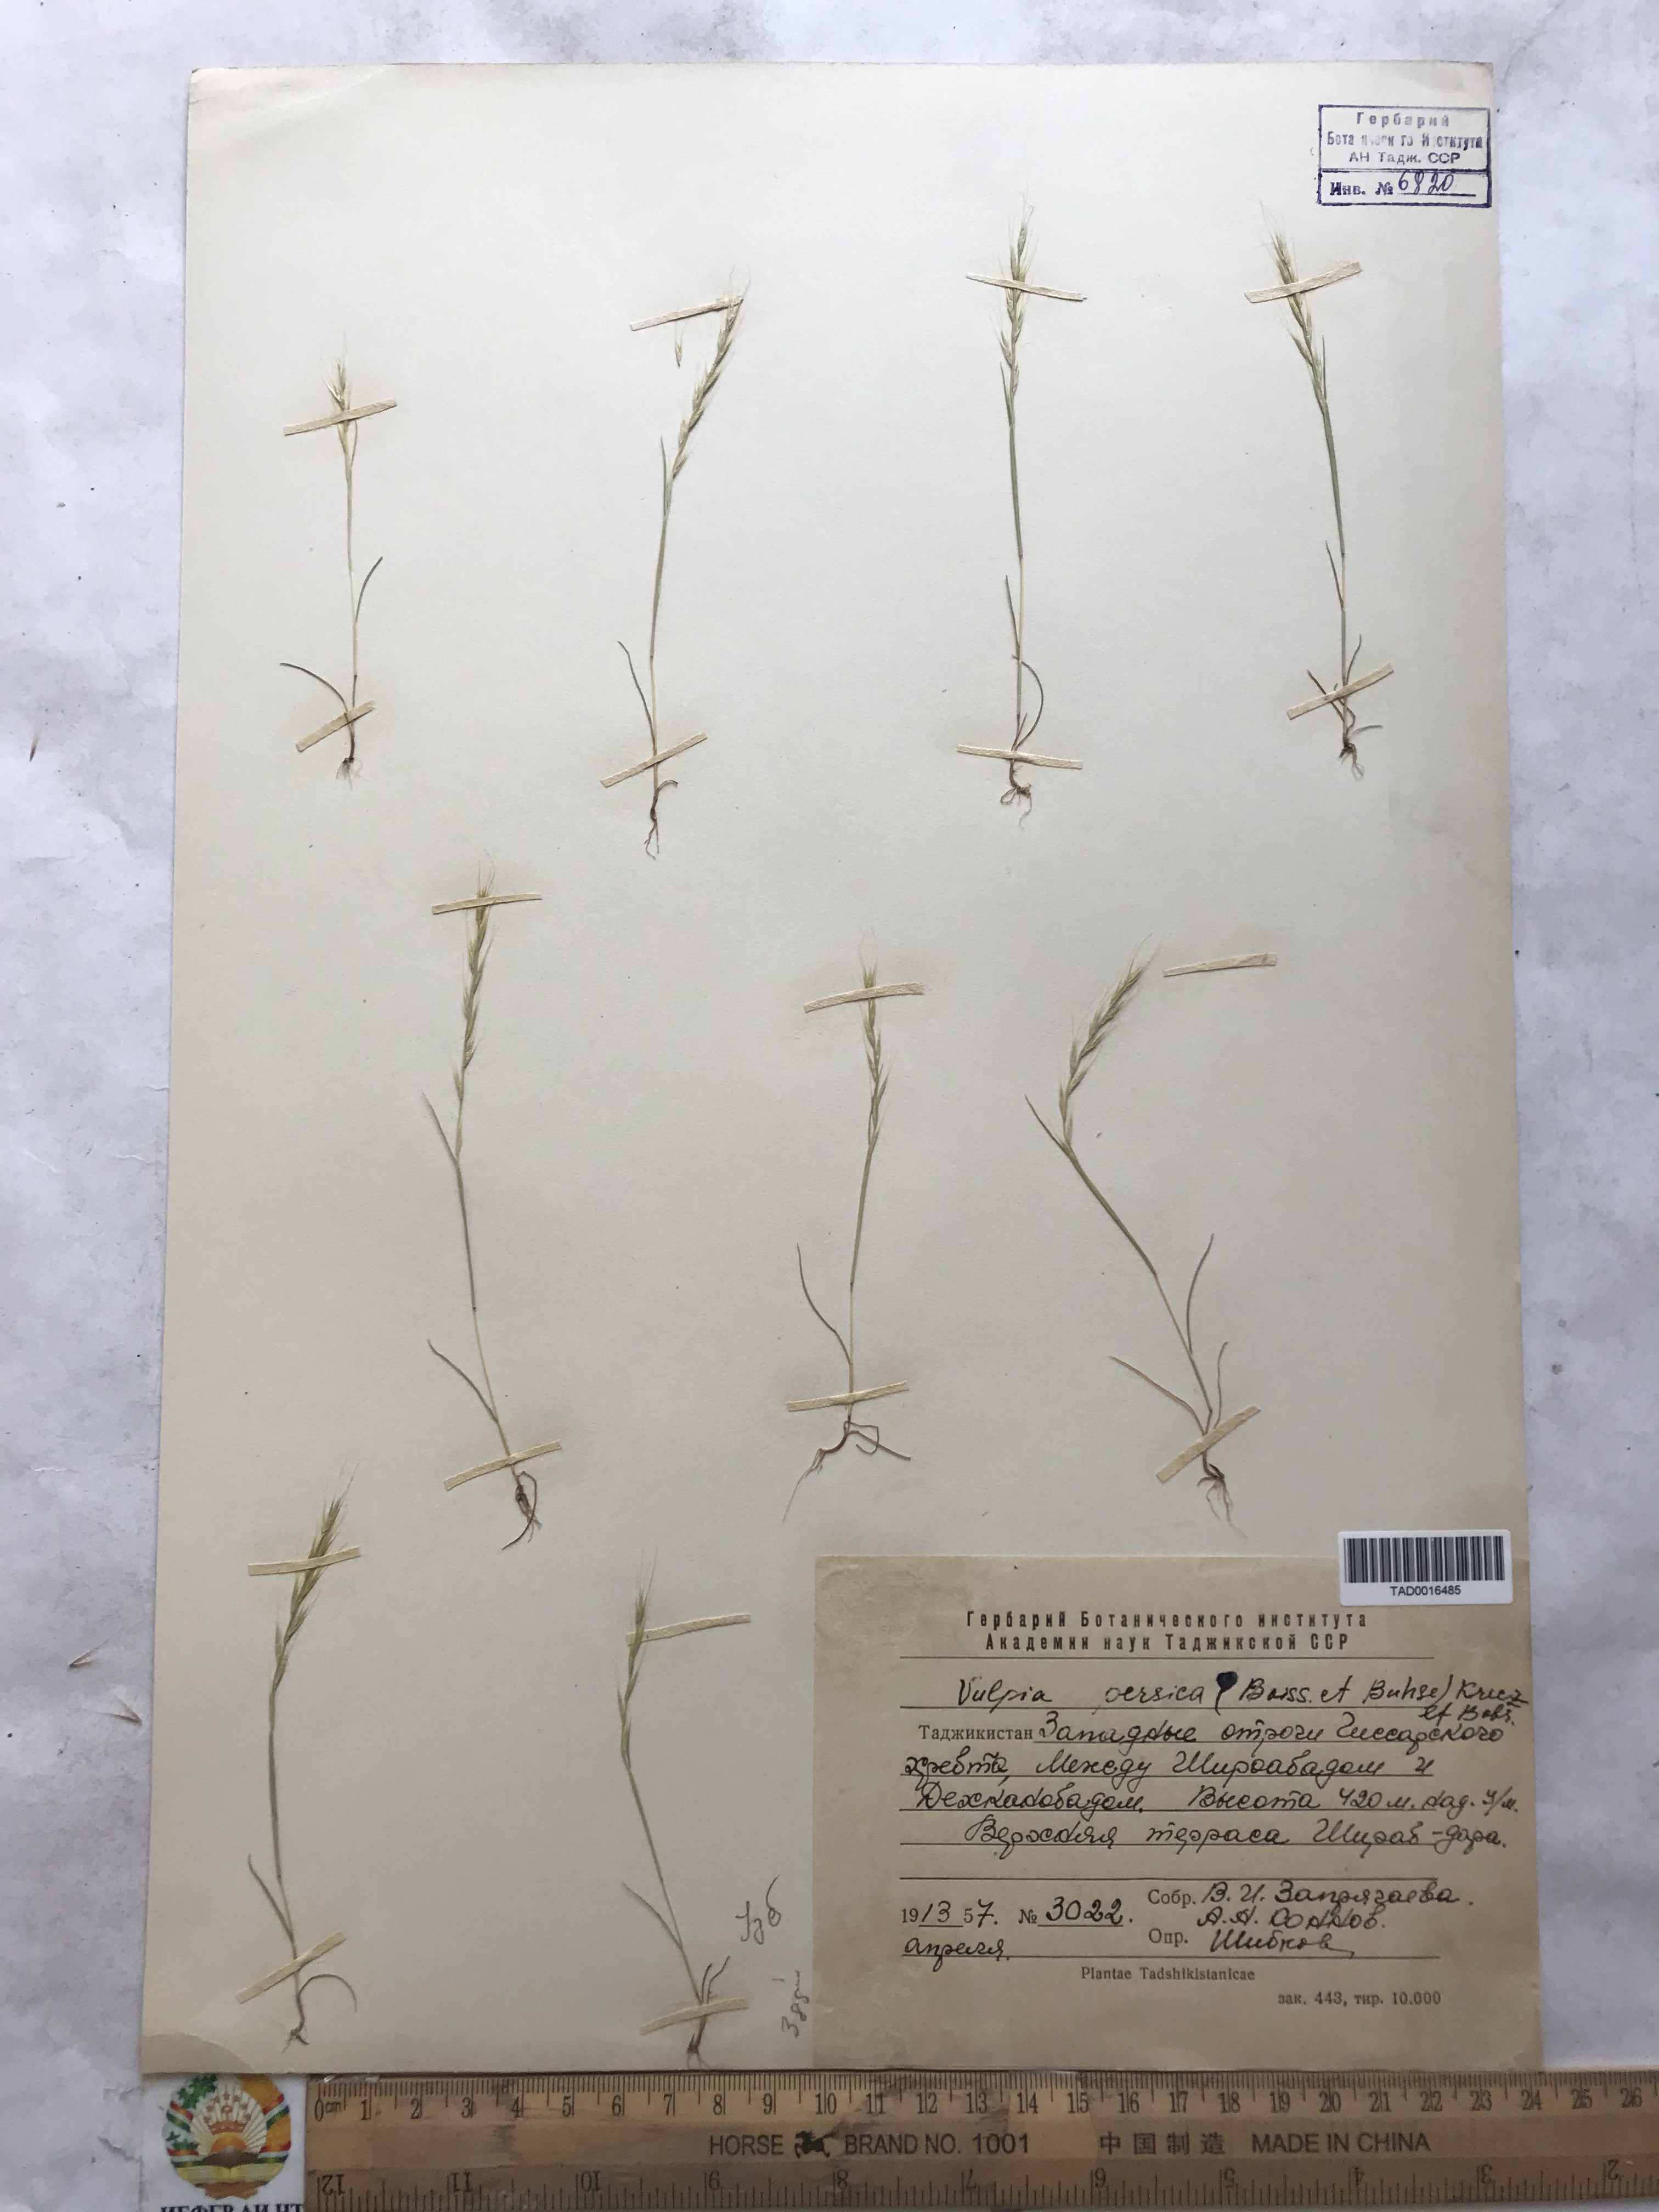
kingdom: Plantae
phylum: Tracheophyta
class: Liliopsida
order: Poales
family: Poaceae
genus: Festuca
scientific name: Festuca Vulpia persica
